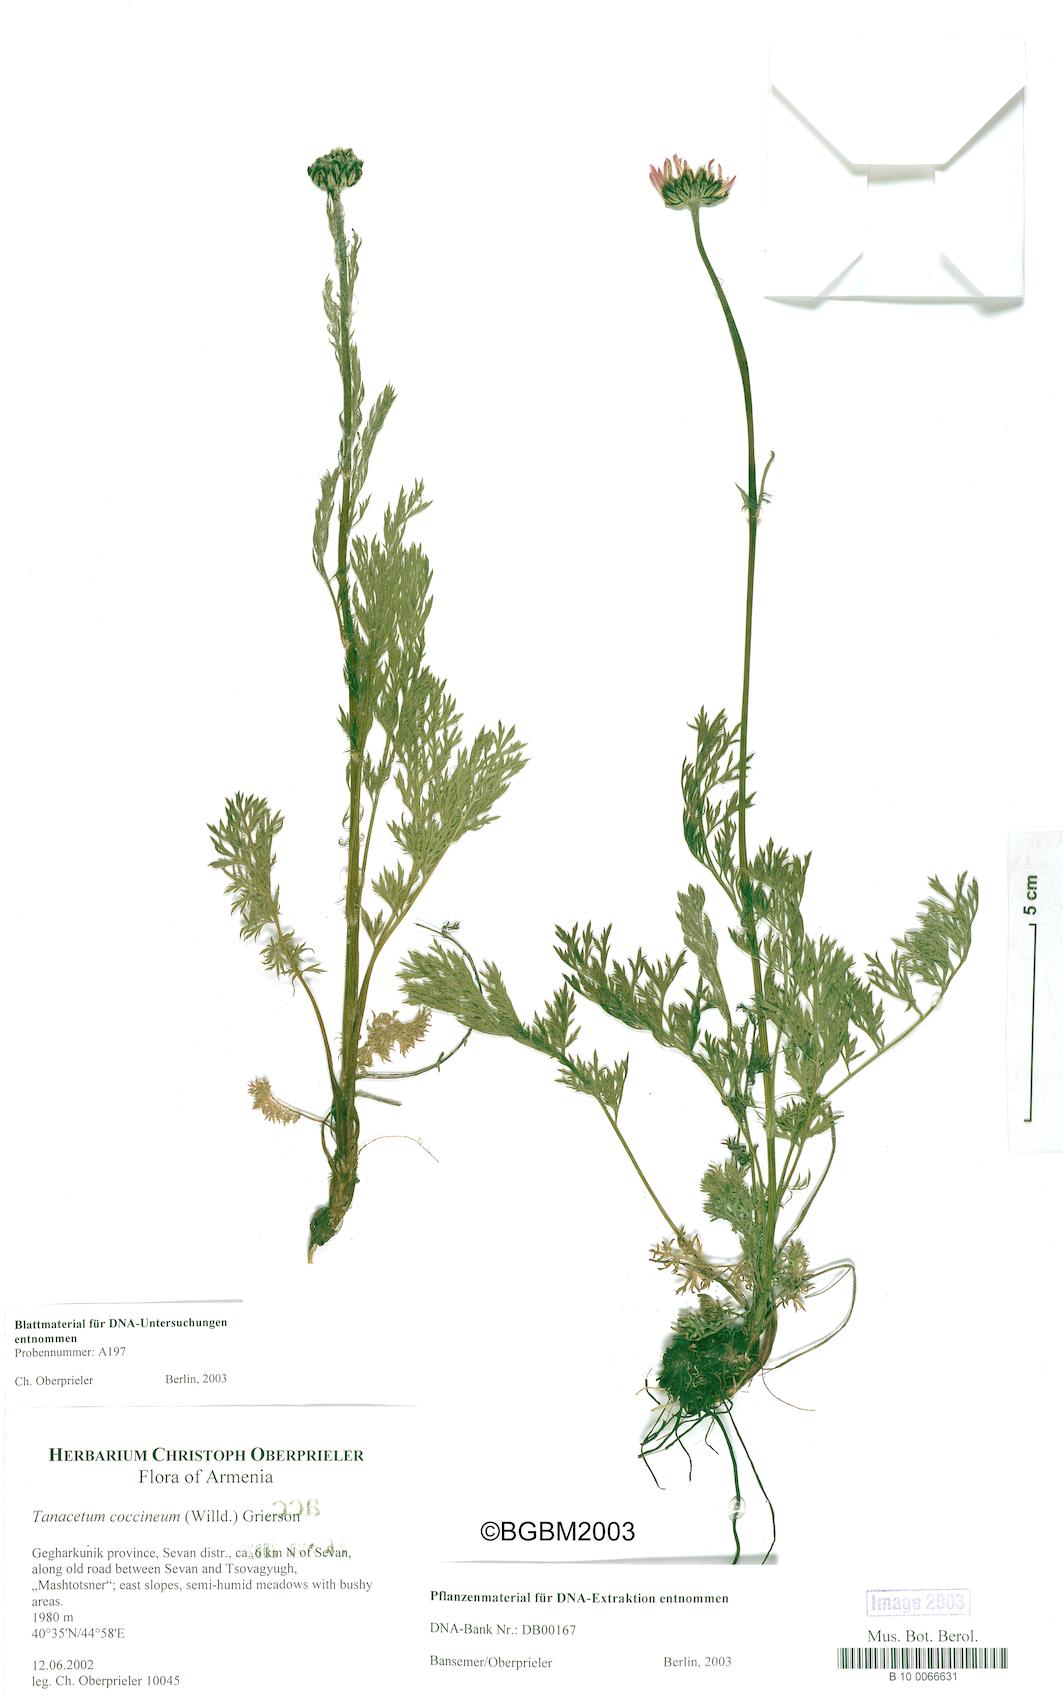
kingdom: Plantae
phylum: Tracheophyta
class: Magnoliopsida
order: Asterales
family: Asteraceae
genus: Tanacetum
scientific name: Tanacetum coccineum
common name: Pyrethum daisy
